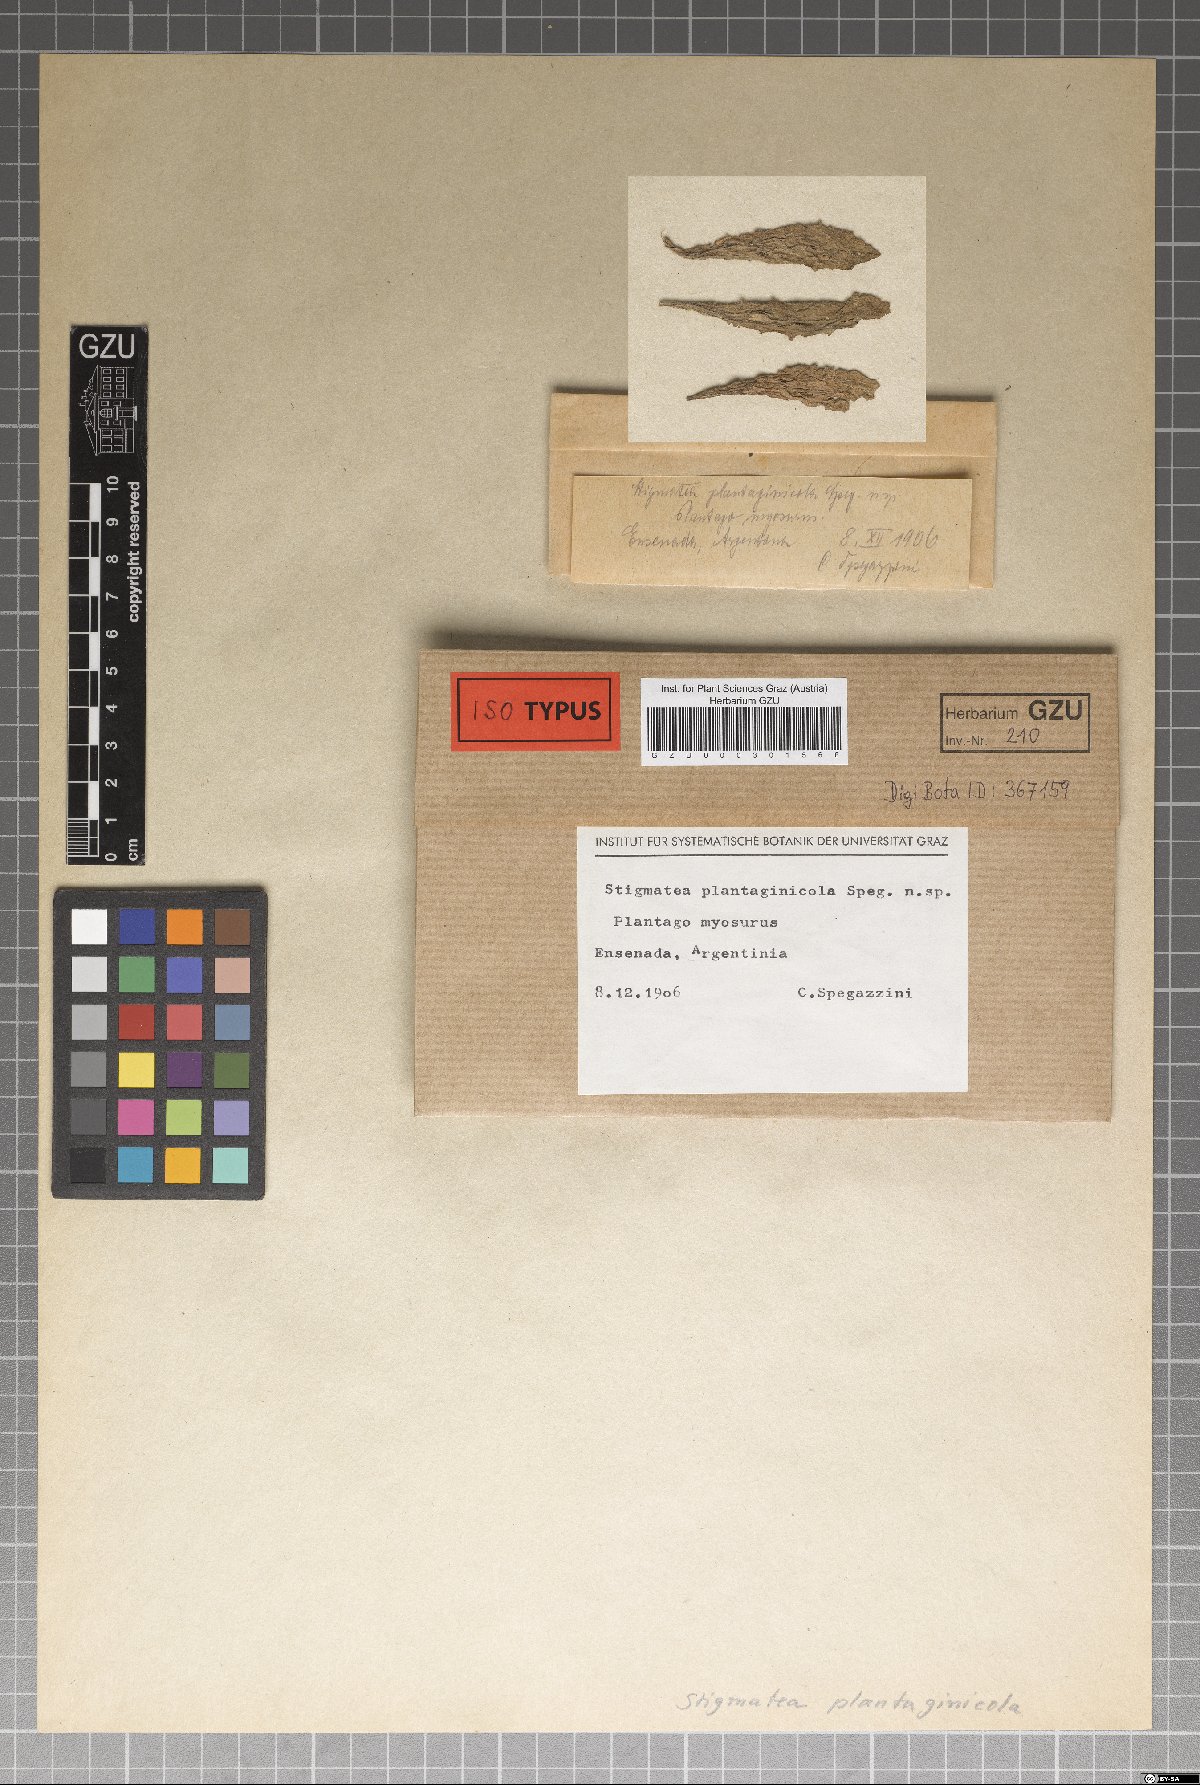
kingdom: Fungi
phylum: Ascomycota
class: Dothideomycetes
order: Venturiales
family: Venturiaceae
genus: Stigmatea
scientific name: Stigmatea plantaginicola
